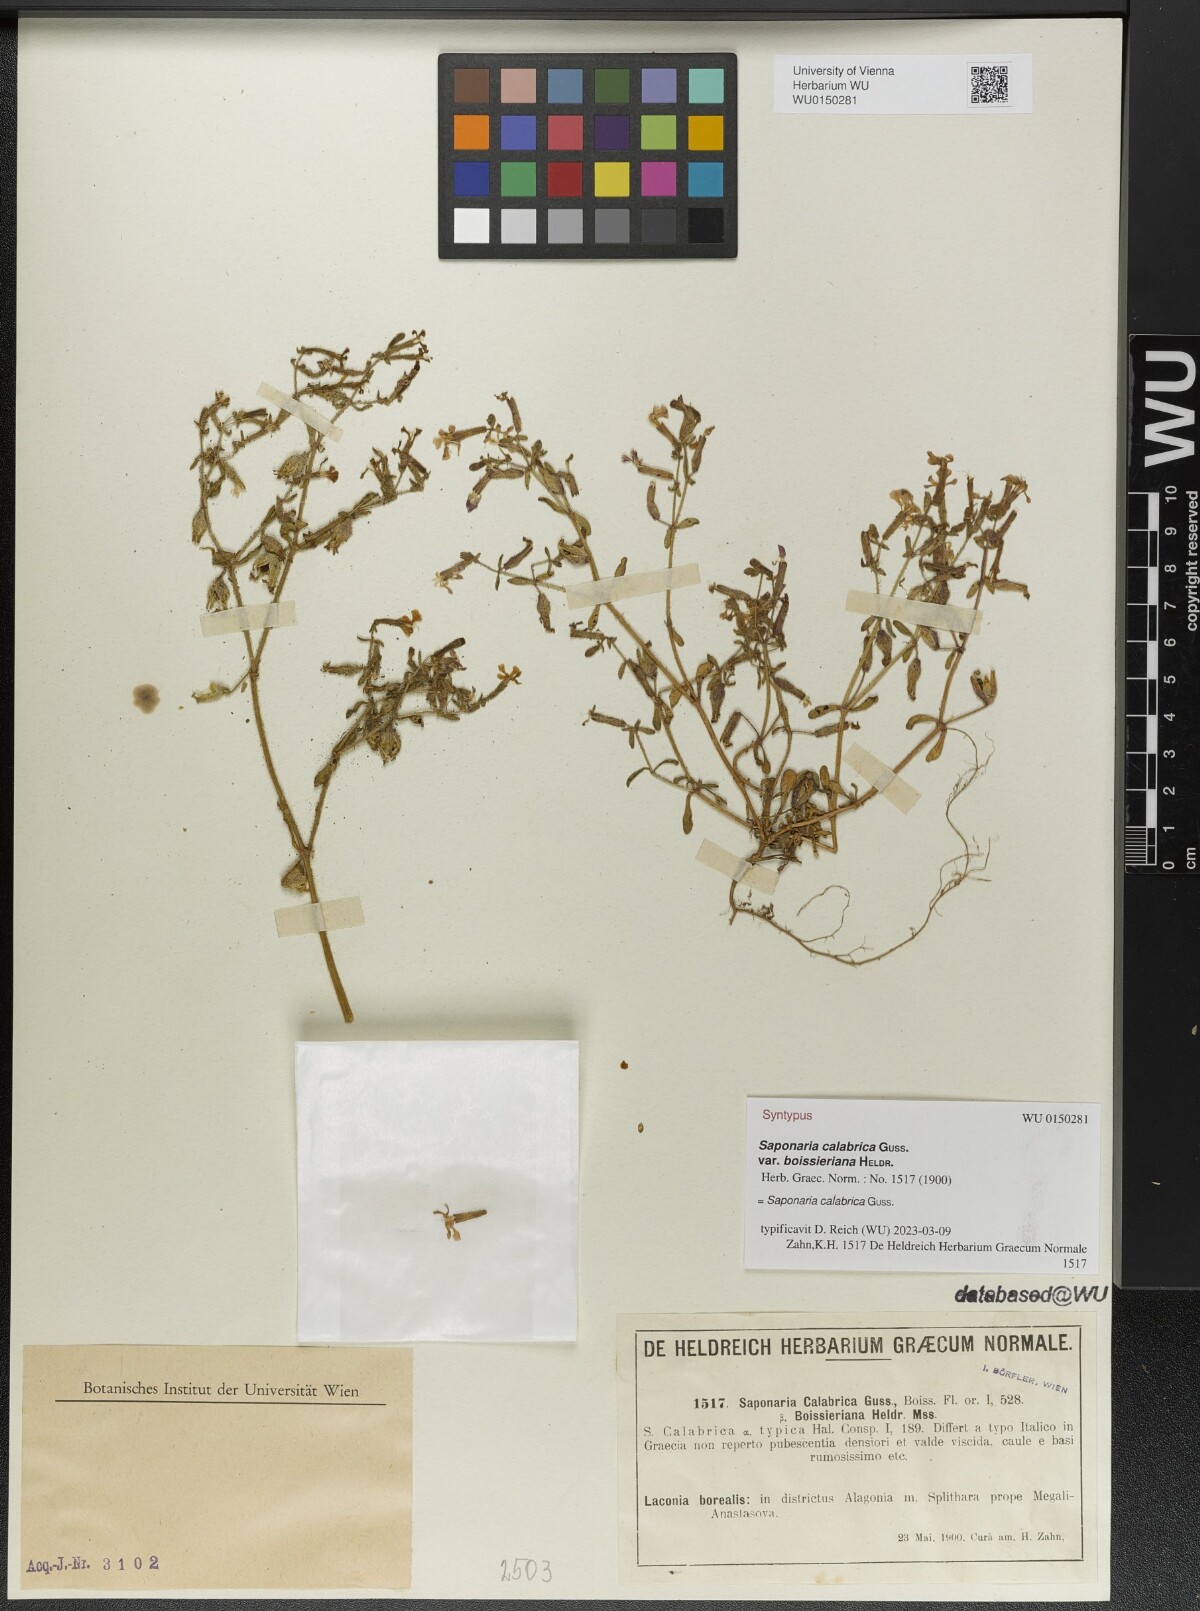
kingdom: Plantae
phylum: Tracheophyta
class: Magnoliopsida
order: Caryophyllales
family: Caryophyllaceae
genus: Saponaria
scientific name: Saponaria calabrica
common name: Adriatic soapwort
